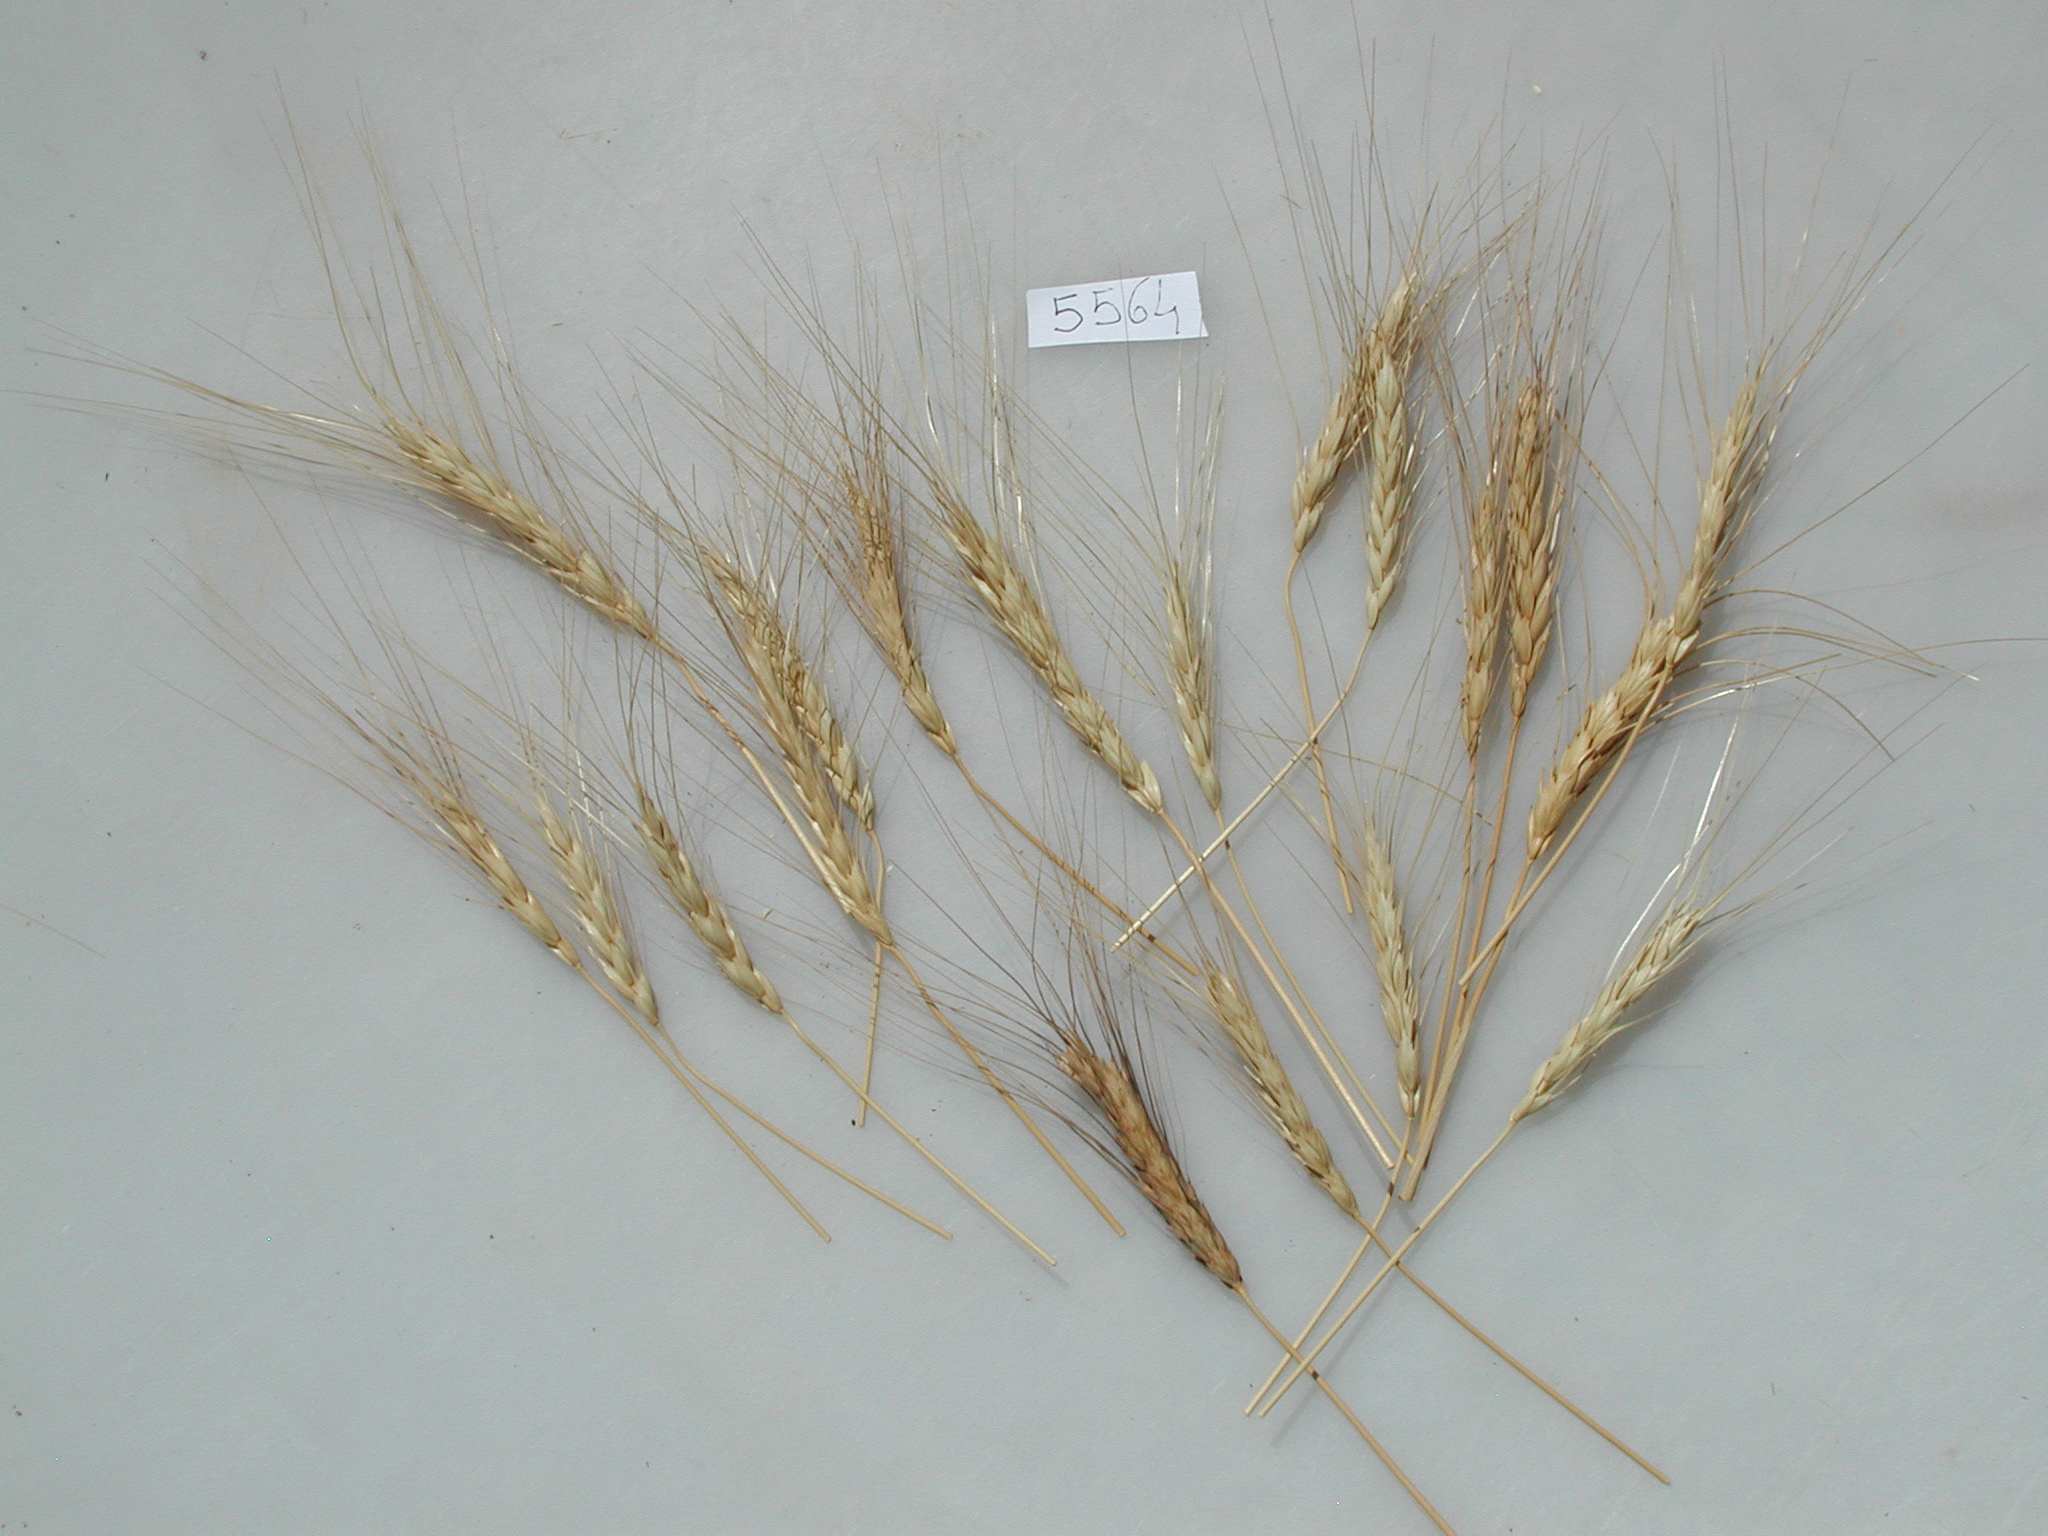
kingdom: Plantae
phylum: Tracheophyta
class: Liliopsida
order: Poales
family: Poaceae
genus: Triticum
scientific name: Triticum
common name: Wheat
